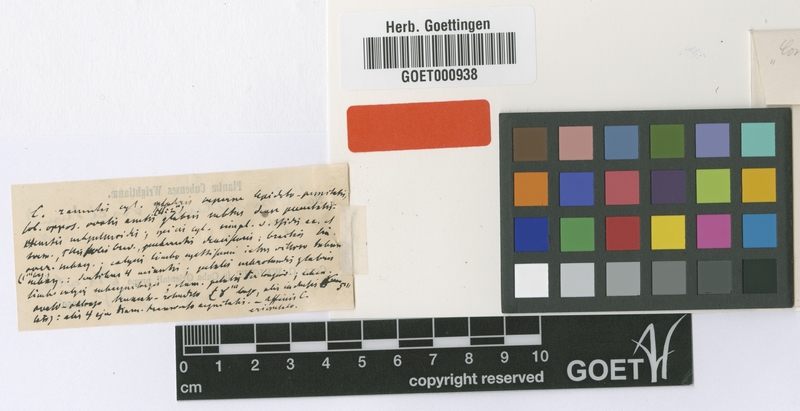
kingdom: Plantae
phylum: Tracheophyta
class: Magnoliopsida
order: Myrtales
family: Combretaceae
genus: Combretum
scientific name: Combretum laxum
